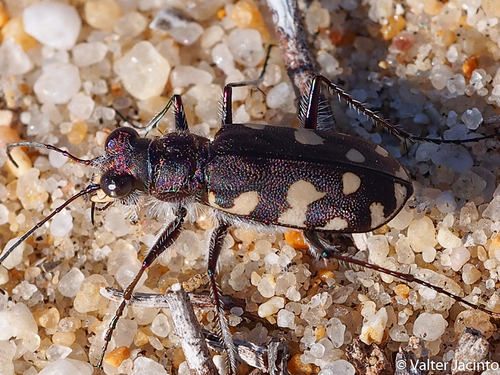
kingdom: Animalia
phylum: Arthropoda
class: Insecta
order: Coleoptera
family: Carabidae
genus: Cicindela
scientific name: Cicindela littoralis
